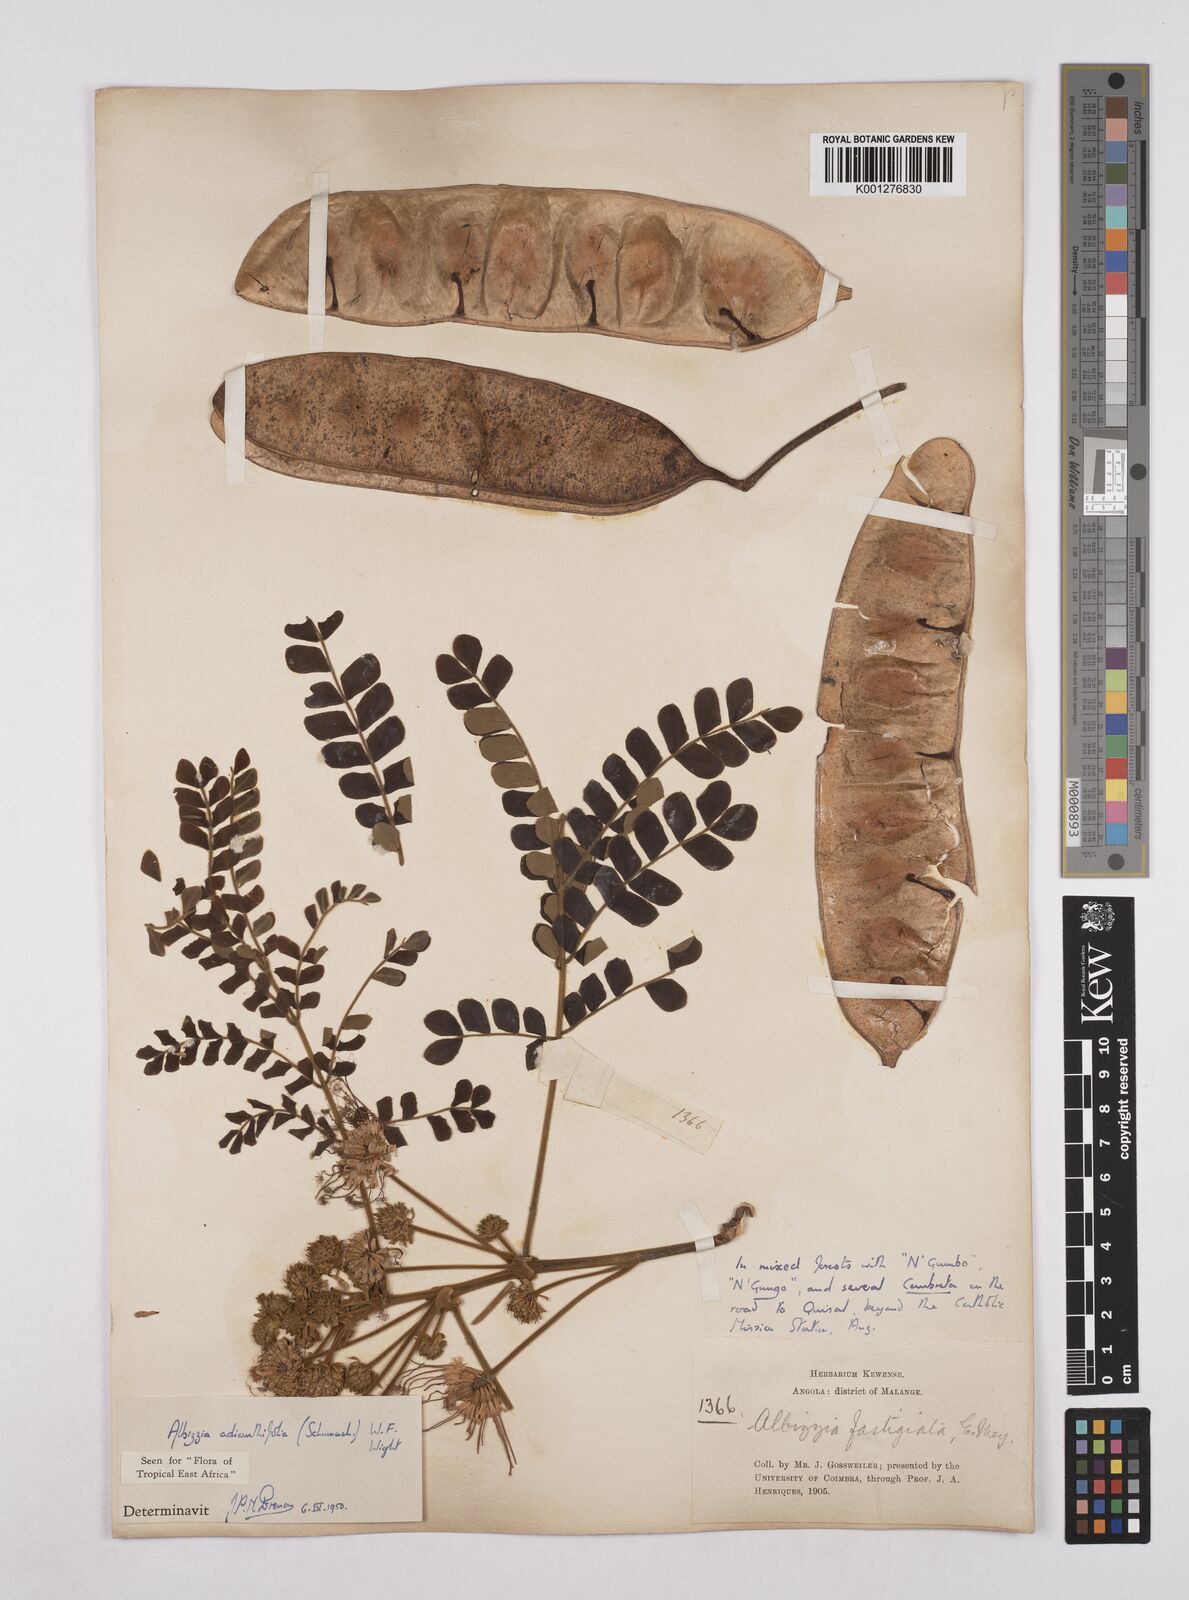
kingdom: Plantae
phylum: Tracheophyta
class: Magnoliopsida
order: Fabales
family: Fabaceae
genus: Albizia
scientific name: Albizia adianthifolia
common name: West african albizia
